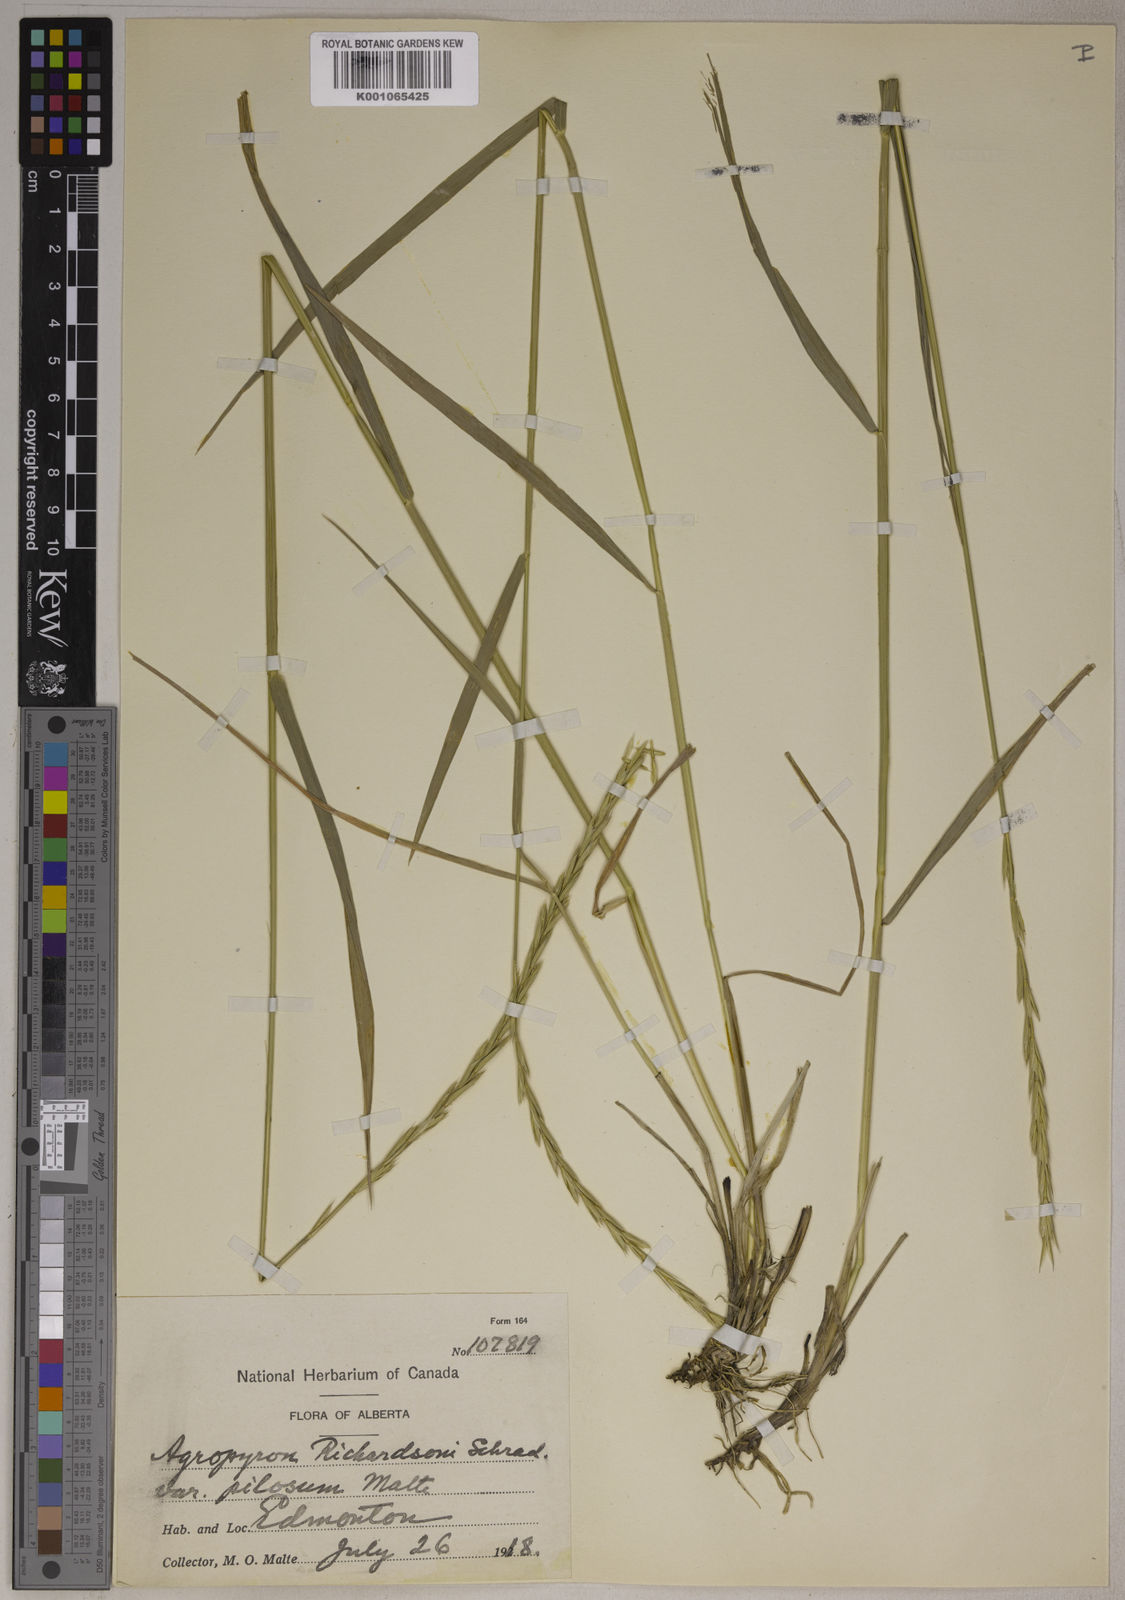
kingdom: Plantae
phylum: Tracheophyta
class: Liliopsida
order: Poales
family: Poaceae
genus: Elymus
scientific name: Elymus
